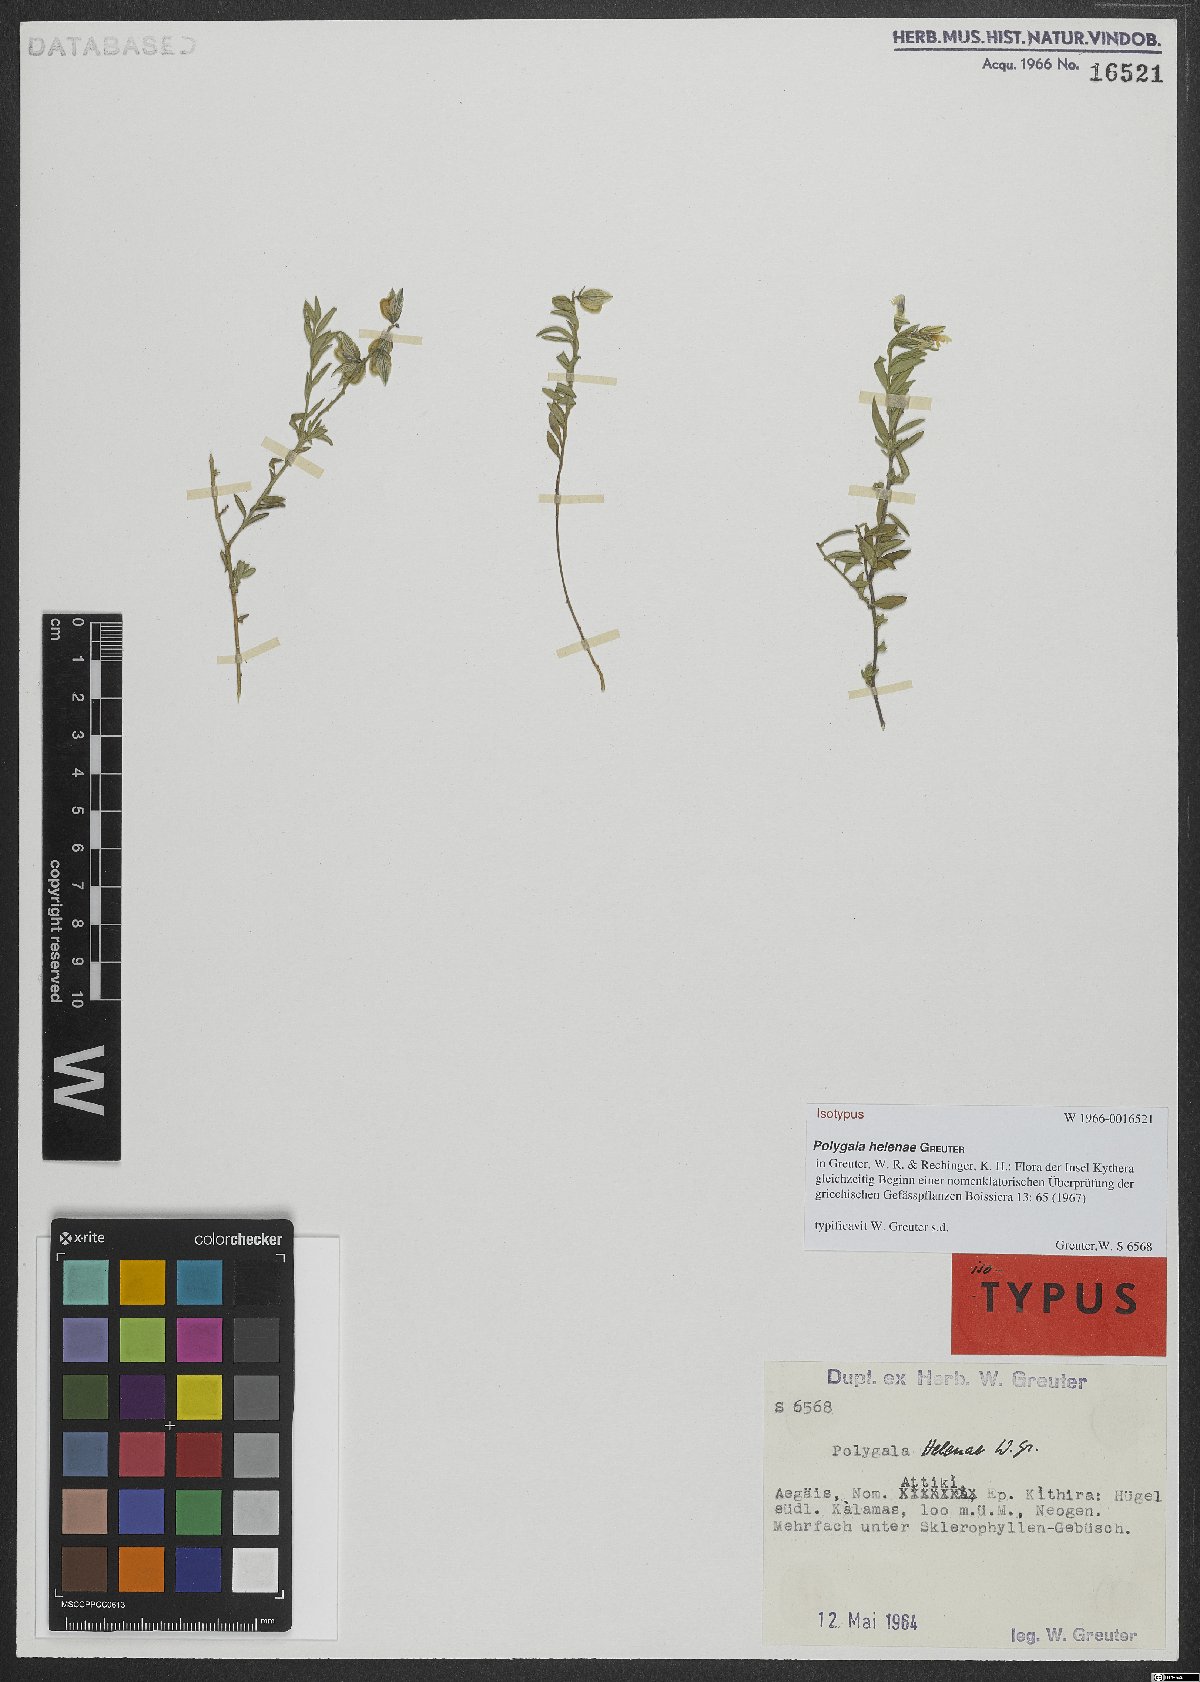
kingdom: Plantae
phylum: Tracheophyta
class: Magnoliopsida
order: Fabales
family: Polygalaceae
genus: Polygala
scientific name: Polygala helenae
